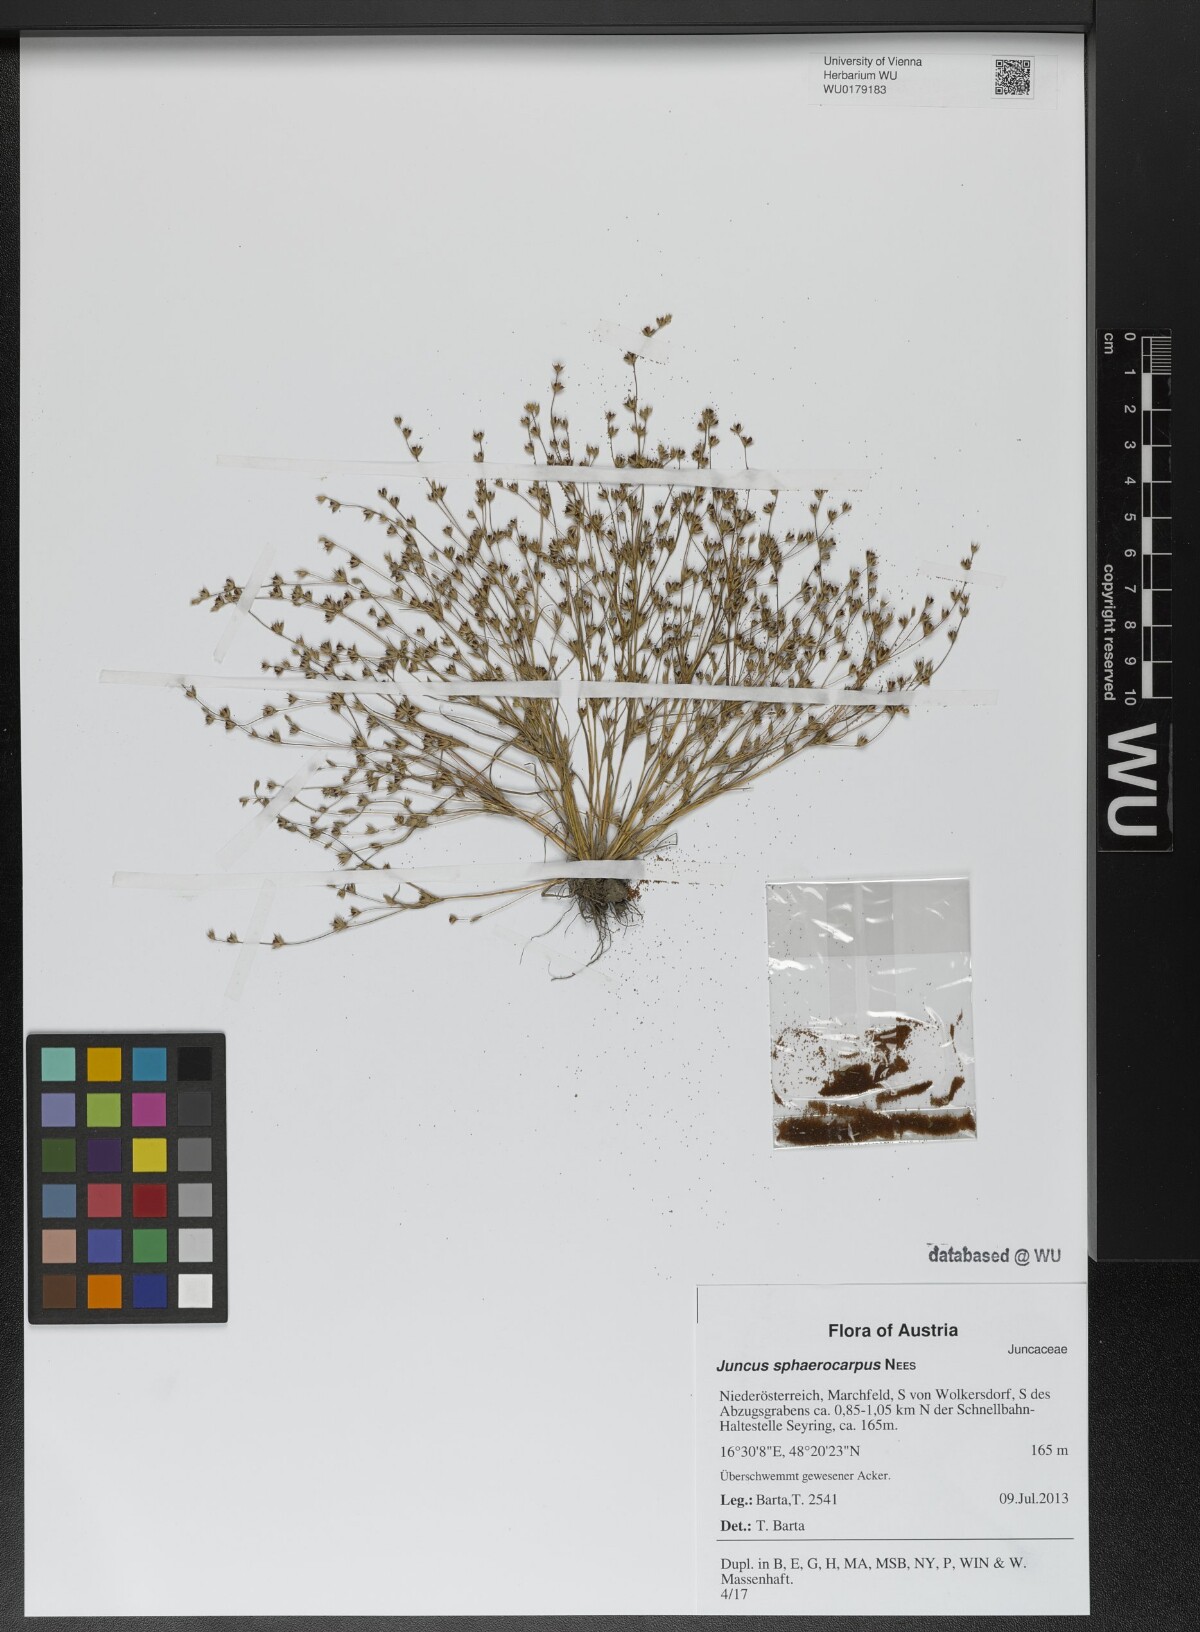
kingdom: Plantae
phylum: Tracheophyta
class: Liliopsida
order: Poales
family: Juncaceae
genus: Juncus
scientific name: Juncus sphaerocarpus
